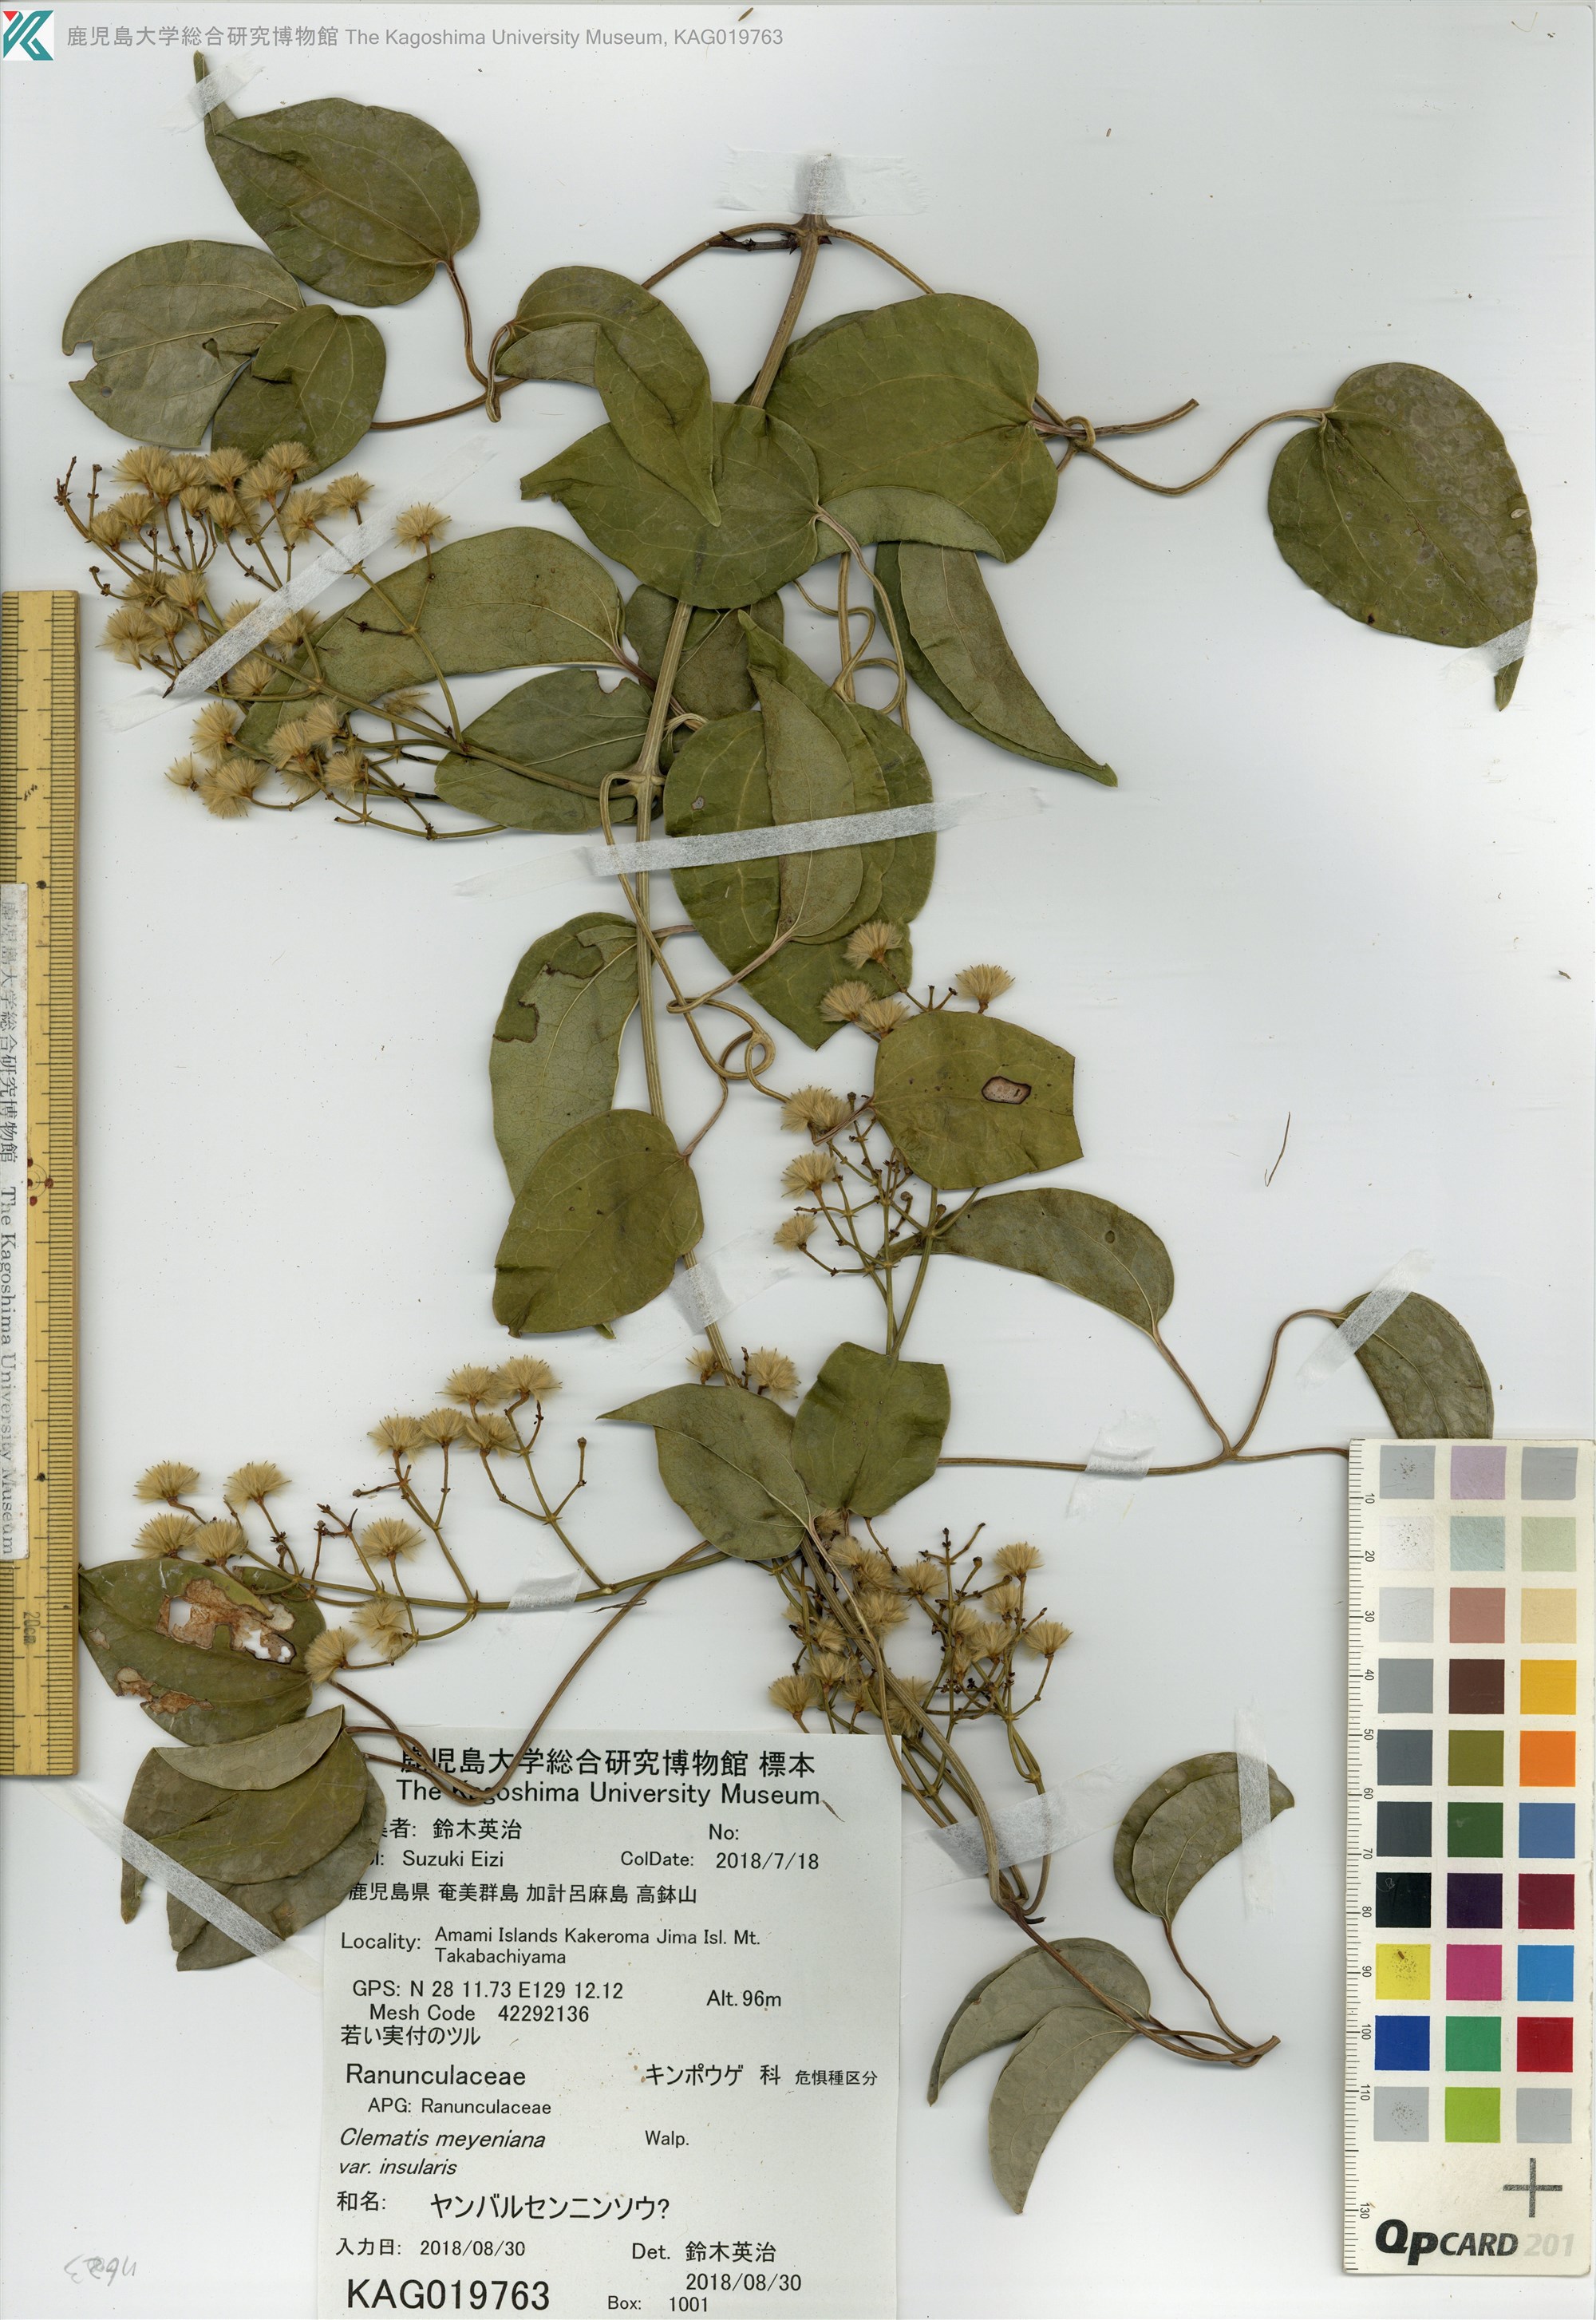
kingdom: Plantae
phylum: Tracheophyta
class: Magnoliopsida
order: Ranunculales
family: Ranunculaceae
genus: Clematis
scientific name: Clematis
